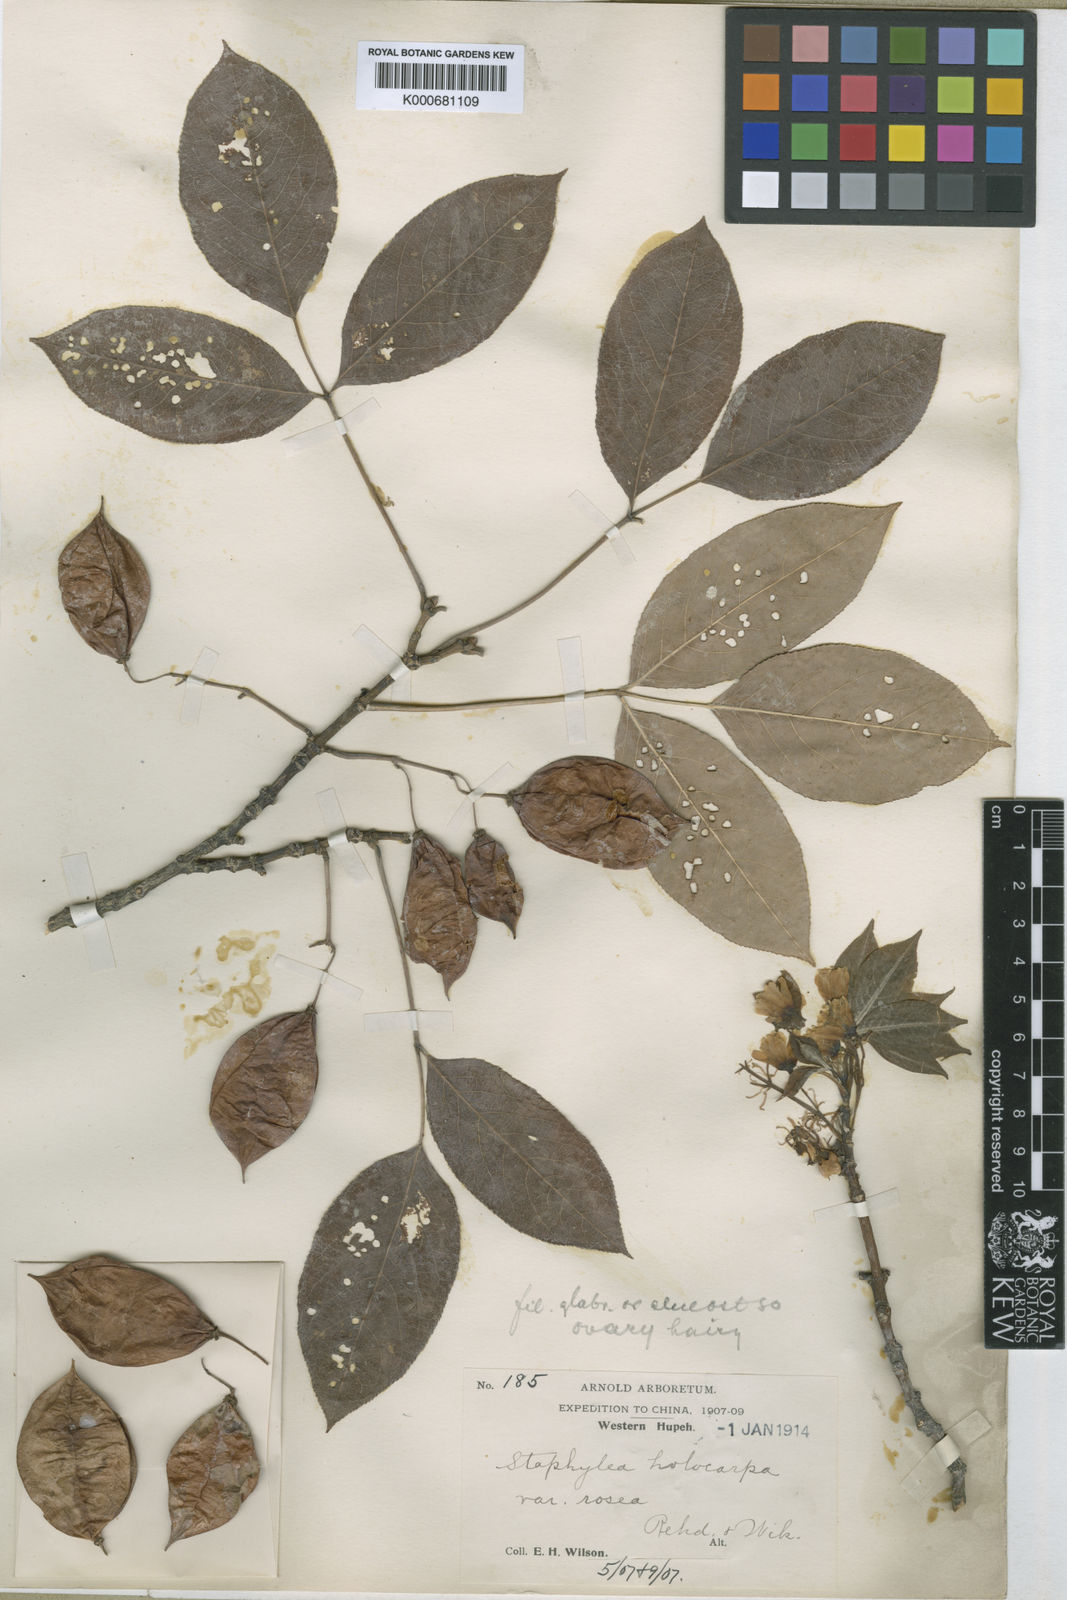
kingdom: Plantae
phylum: Tracheophyta
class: Magnoliopsida
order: Crossosomatales
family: Staphyleaceae
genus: Staphylea
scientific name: Staphylea holocarpa
